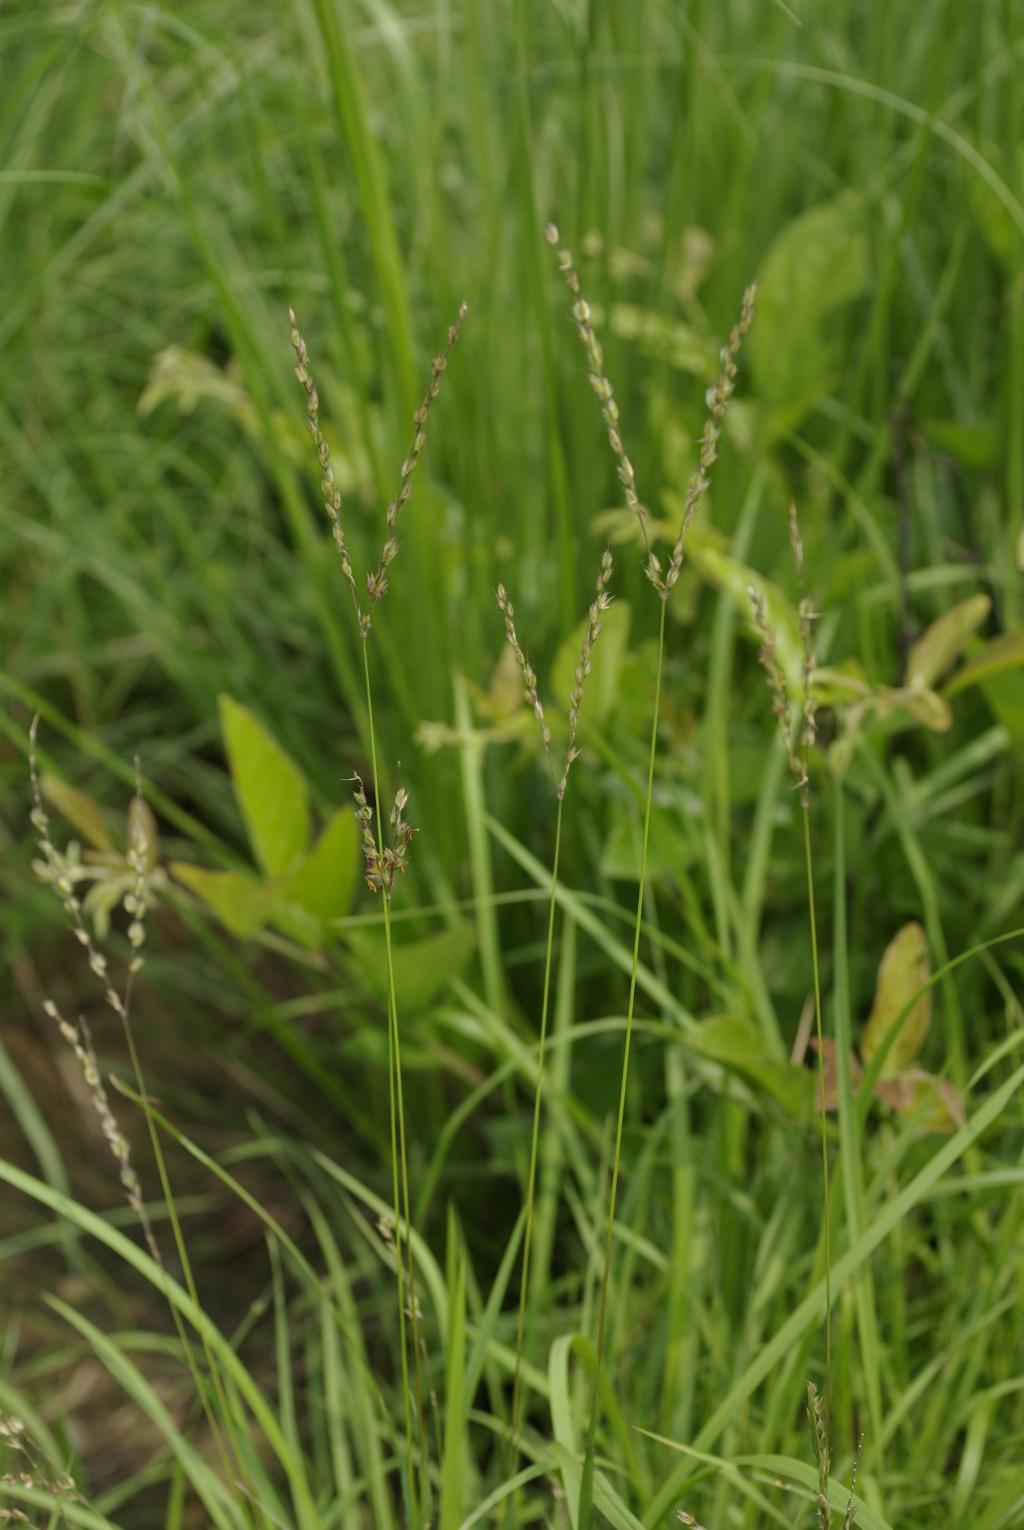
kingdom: Plantae
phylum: Tracheophyta
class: Liliopsida
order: Poales
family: Poaceae
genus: Alloteropsis
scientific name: Alloteropsis semialata
